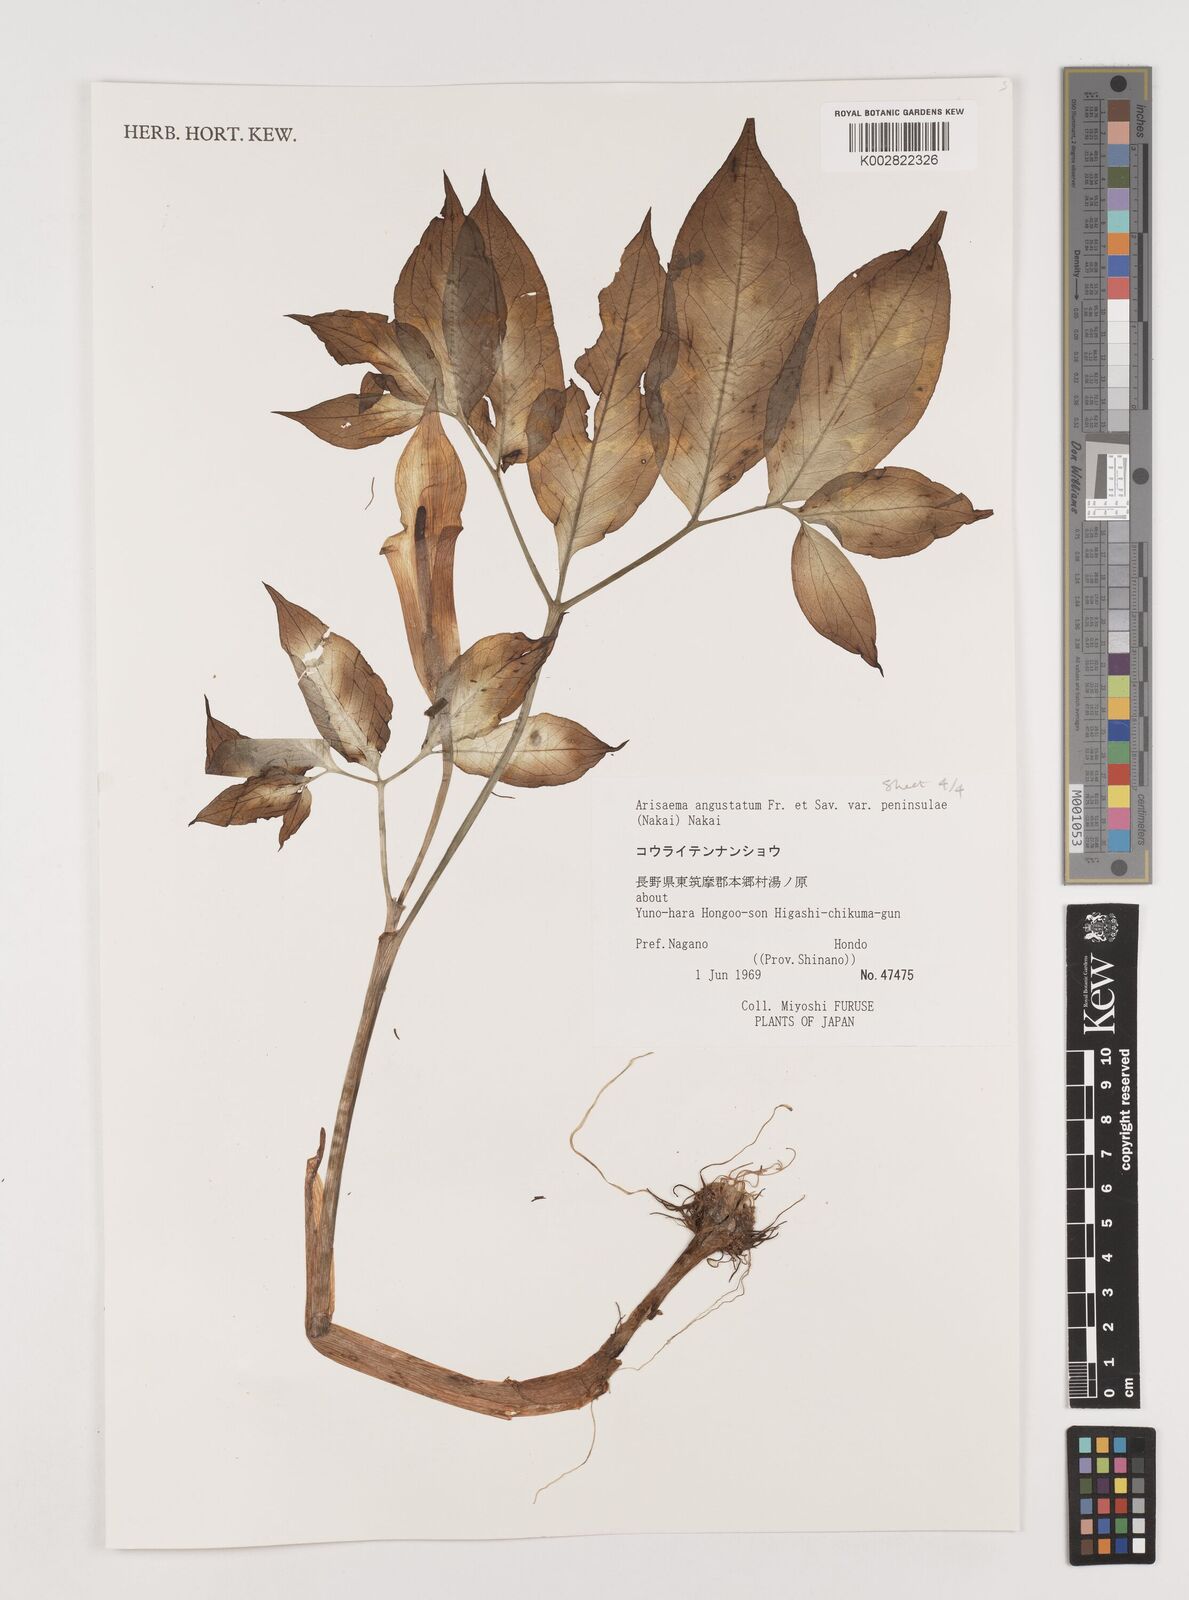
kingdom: Plantae
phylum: Tracheophyta
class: Liliopsida
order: Alismatales
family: Araceae
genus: Arisaema
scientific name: Arisaema angustatum
